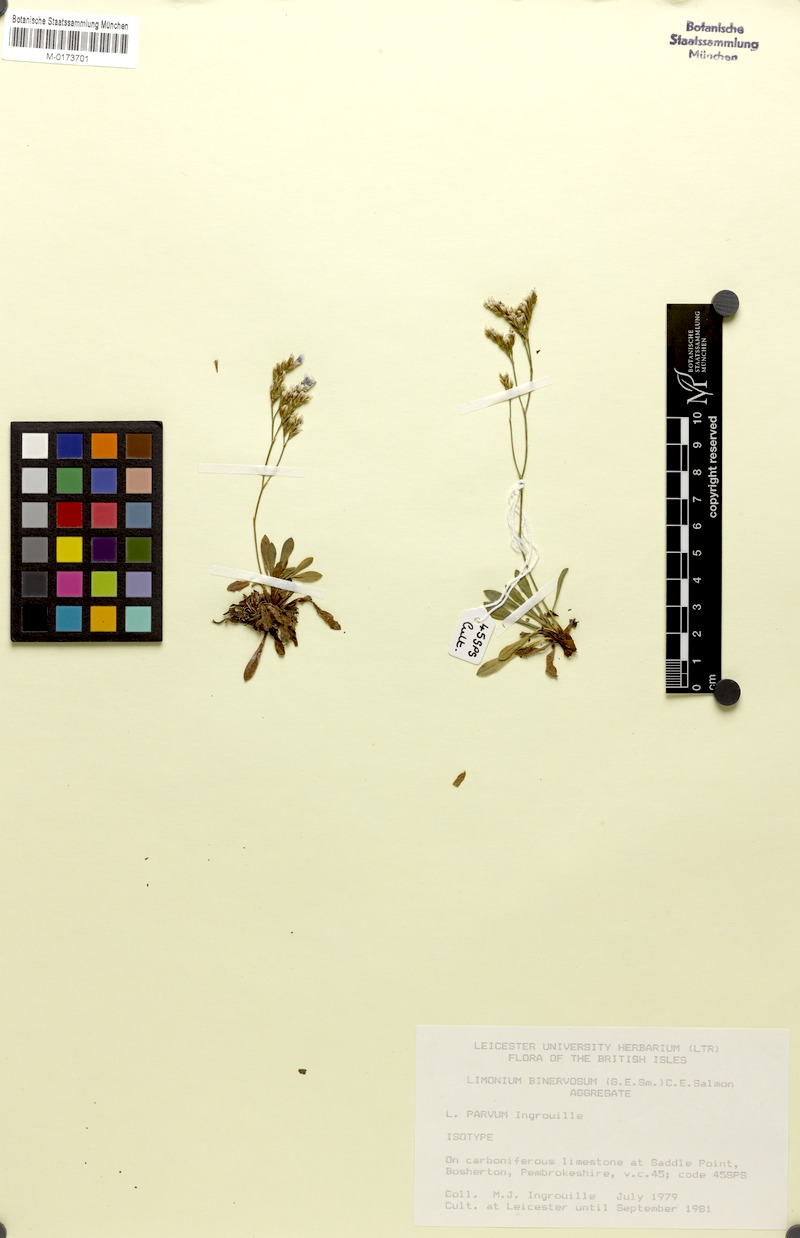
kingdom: Plantae
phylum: Tracheophyta
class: Magnoliopsida
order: Caryophyllales
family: Plumbaginaceae
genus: Limonium
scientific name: Limonium parvum
